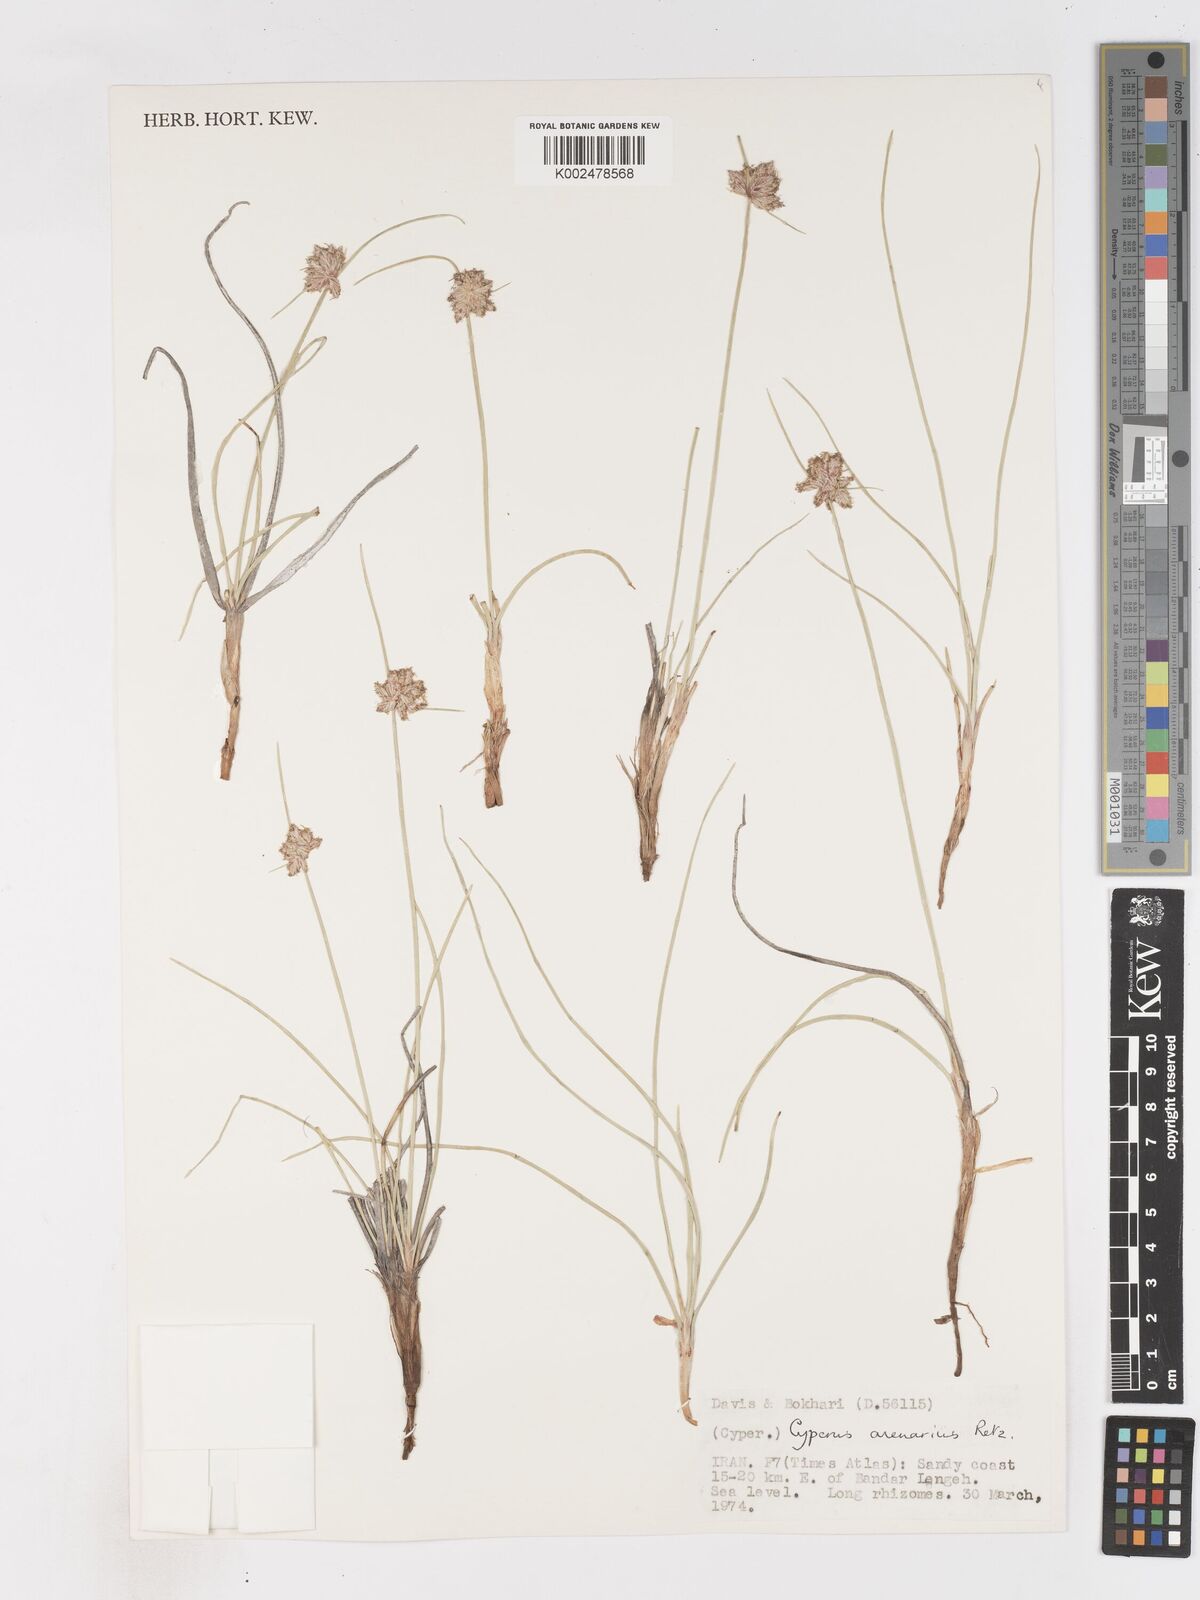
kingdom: Plantae
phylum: Tracheophyta
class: Liliopsida
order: Poales
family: Cyperaceae
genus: Cyperus
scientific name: Cyperus arenarius
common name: Dwarf sedge
